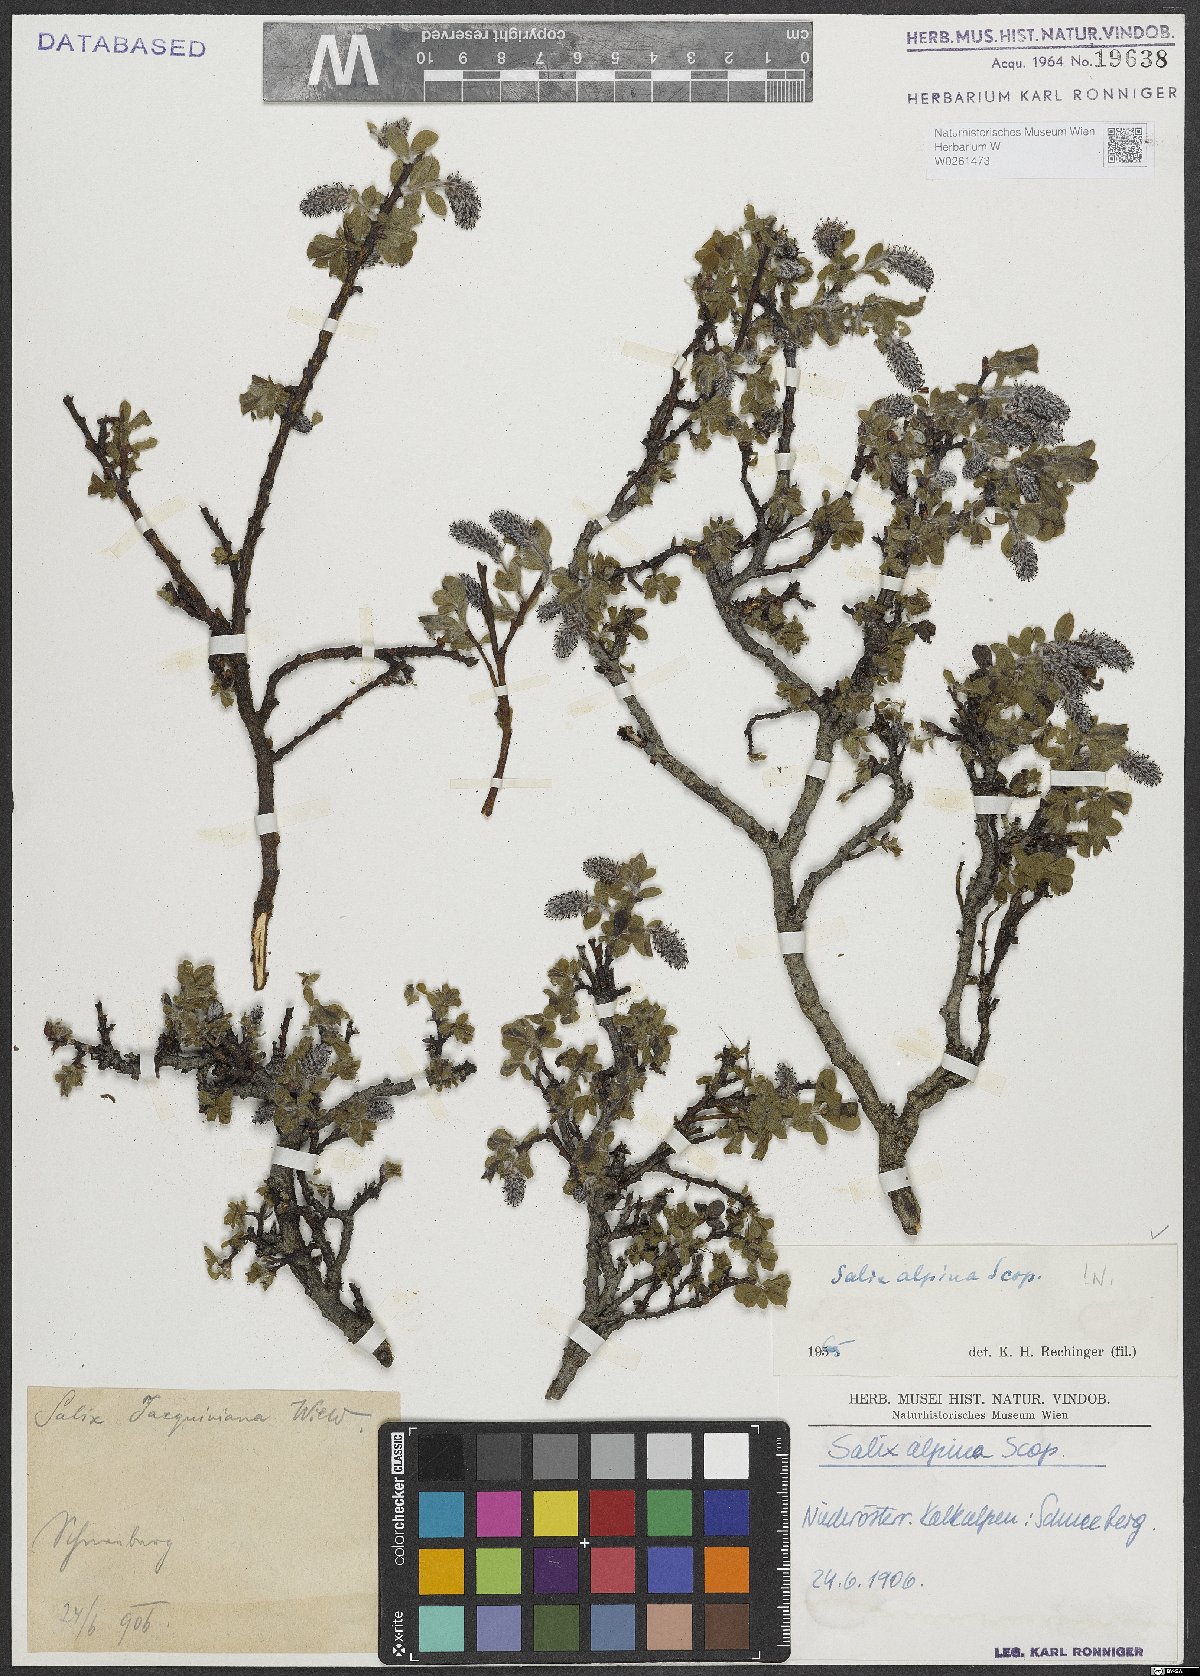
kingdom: Plantae
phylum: Tracheophyta
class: Magnoliopsida
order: Malpighiales
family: Salicaceae
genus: Salix
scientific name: Salix alpina
